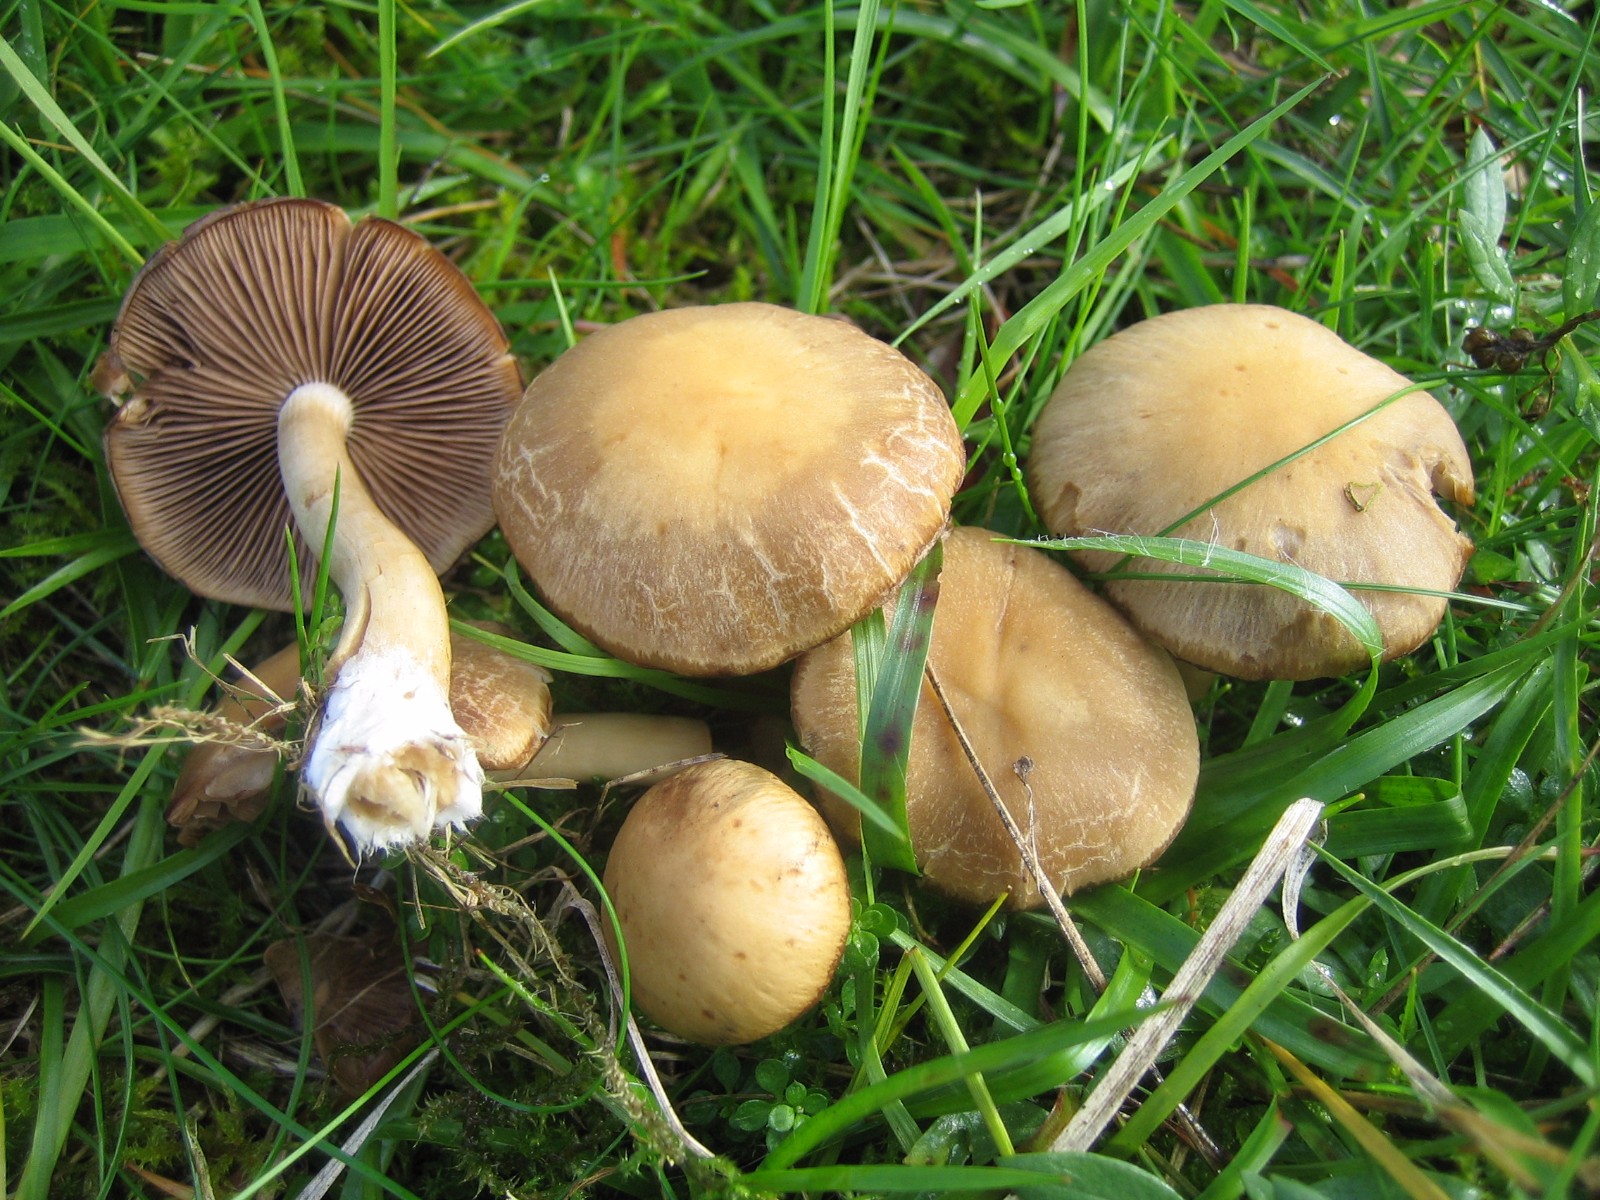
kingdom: Fungi
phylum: Basidiomycota
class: Agaricomycetes
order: Agaricales
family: Psathyrellaceae
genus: Psathyrella
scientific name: Psathyrella
